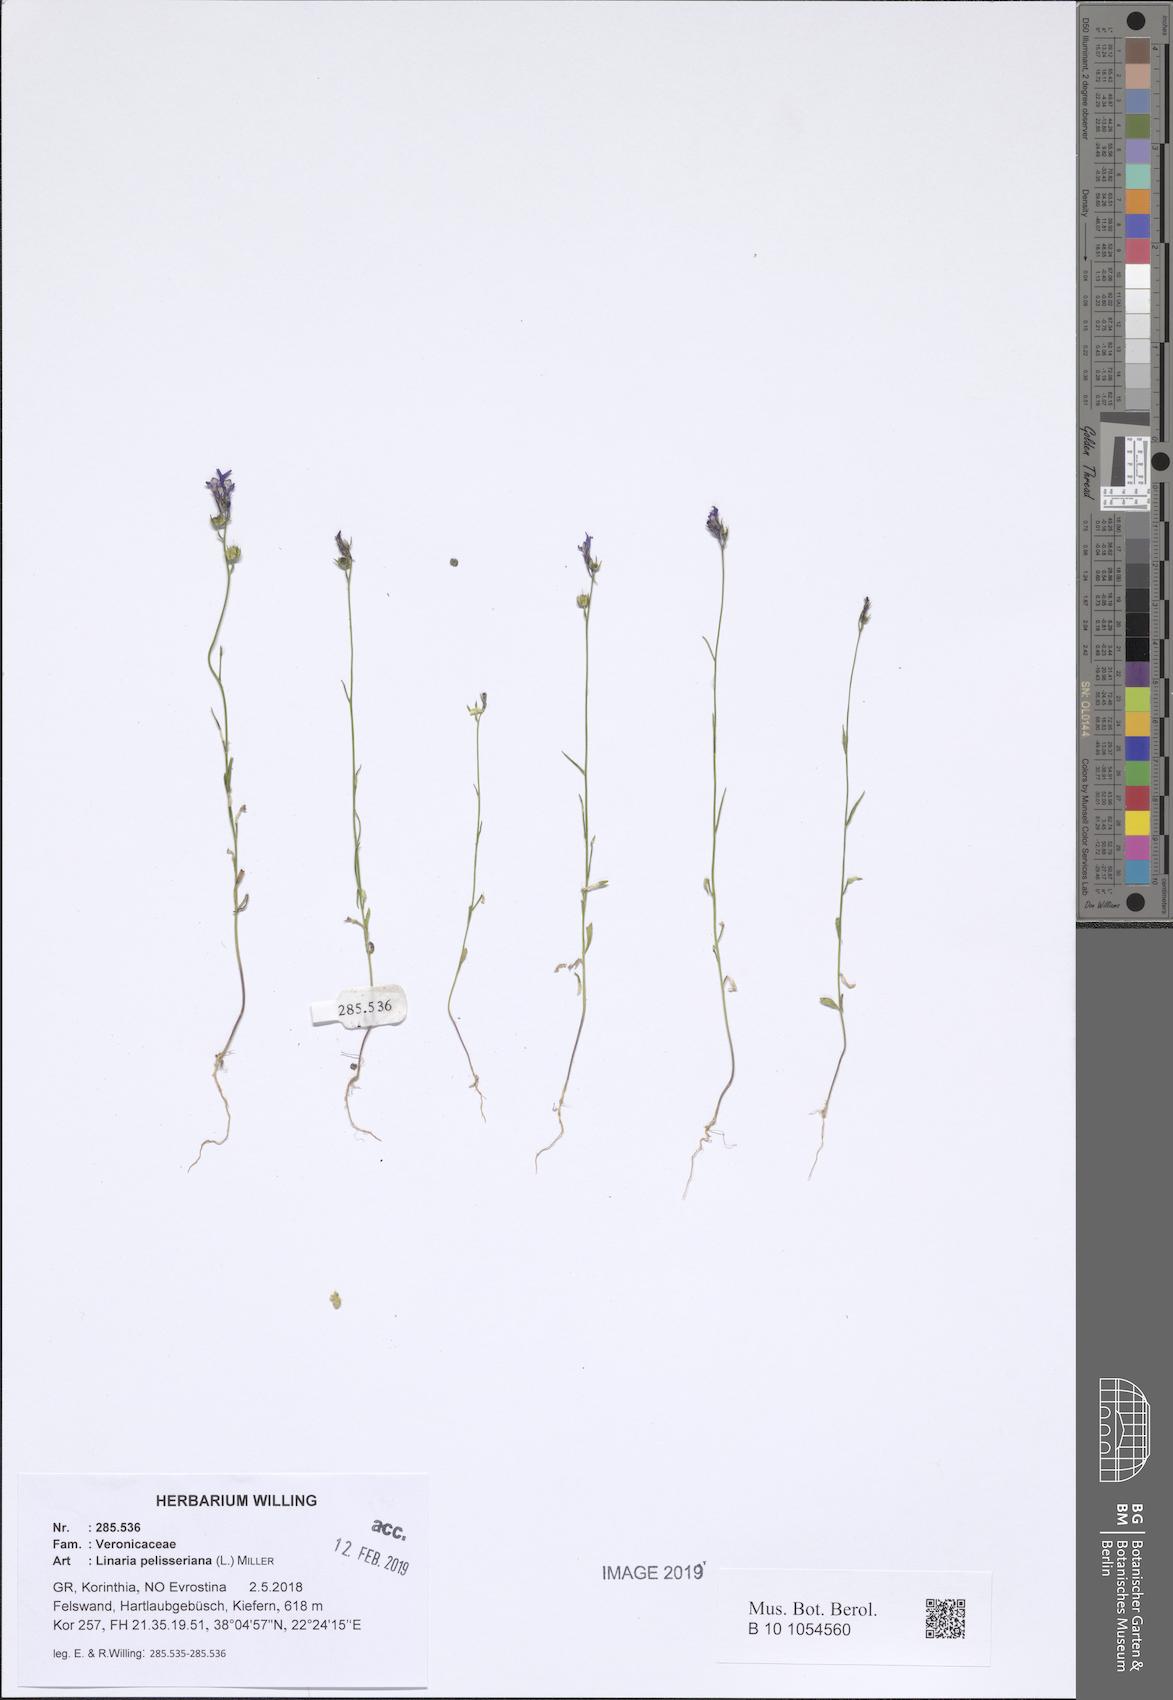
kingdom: Plantae
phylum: Tracheophyta
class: Magnoliopsida
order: Lamiales
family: Plantaginaceae
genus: Linaria
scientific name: Linaria pelisseriana
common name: Jersey toadflax
